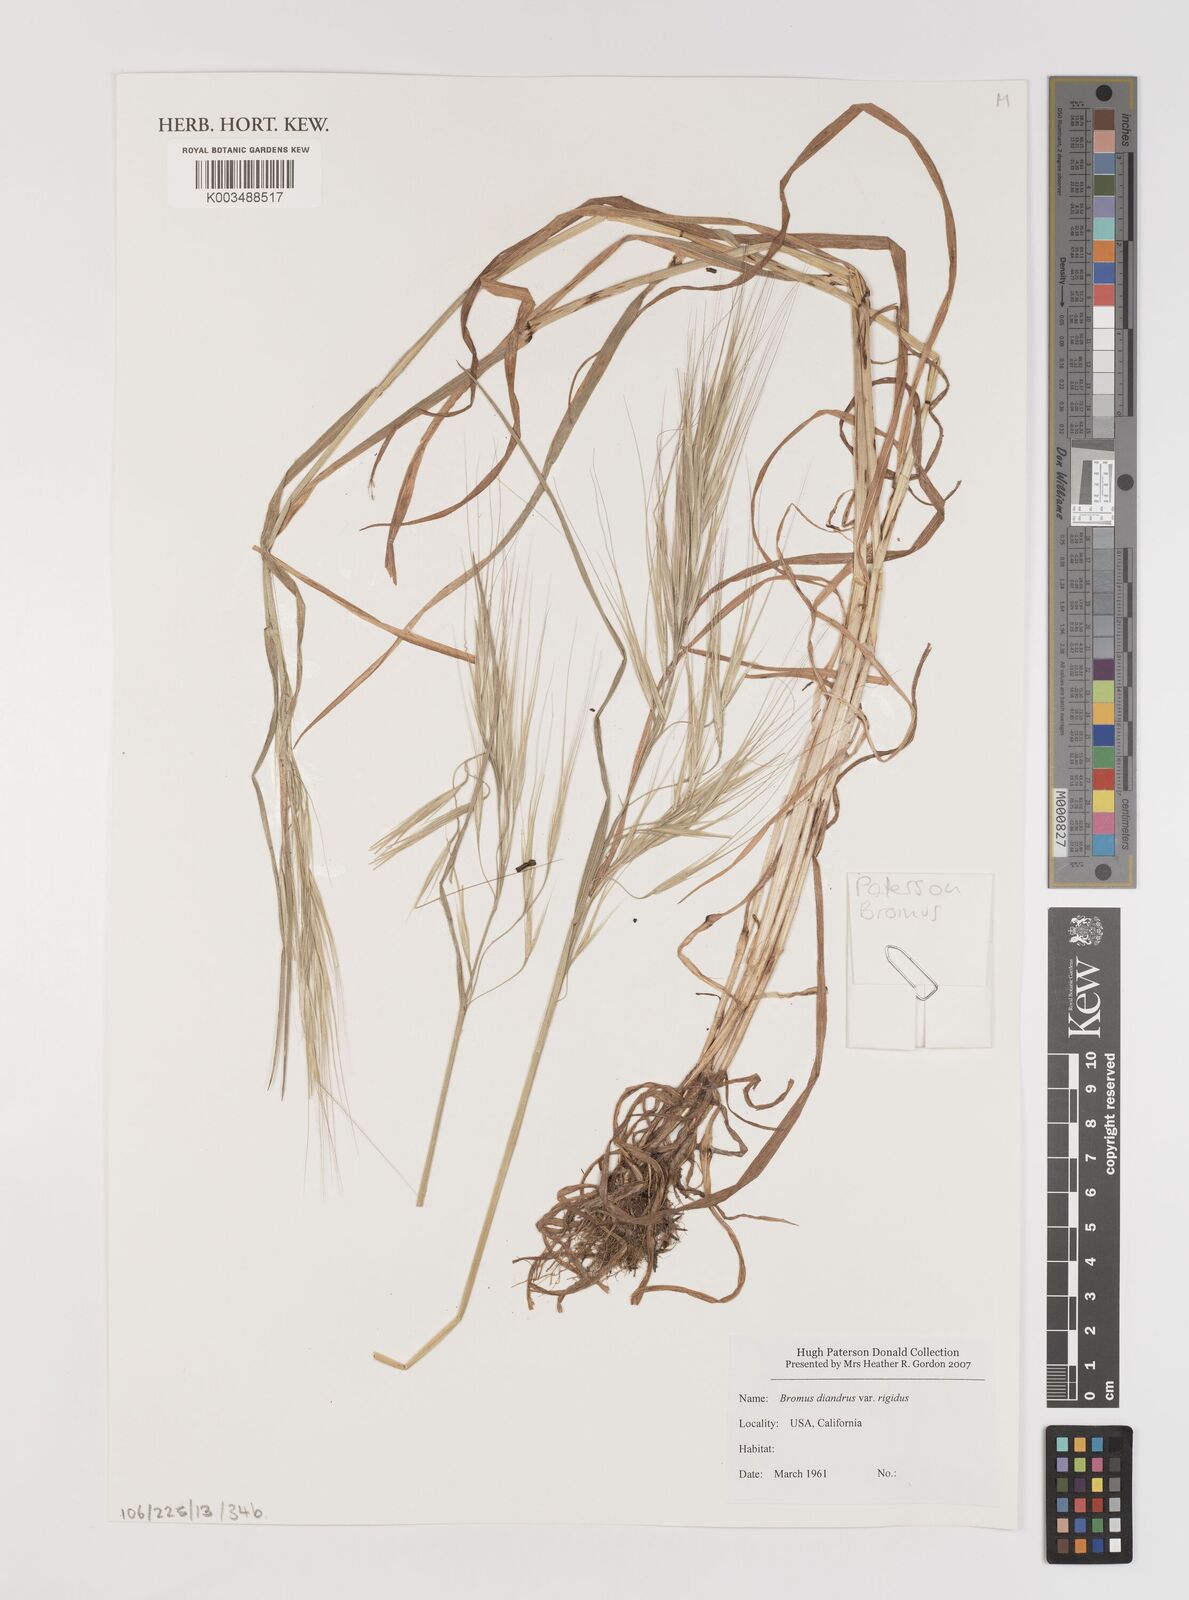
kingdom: Plantae
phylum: Tracheophyta
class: Liliopsida
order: Poales
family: Poaceae
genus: Bromus
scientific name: Bromus diandrus
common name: Ripgut brome
